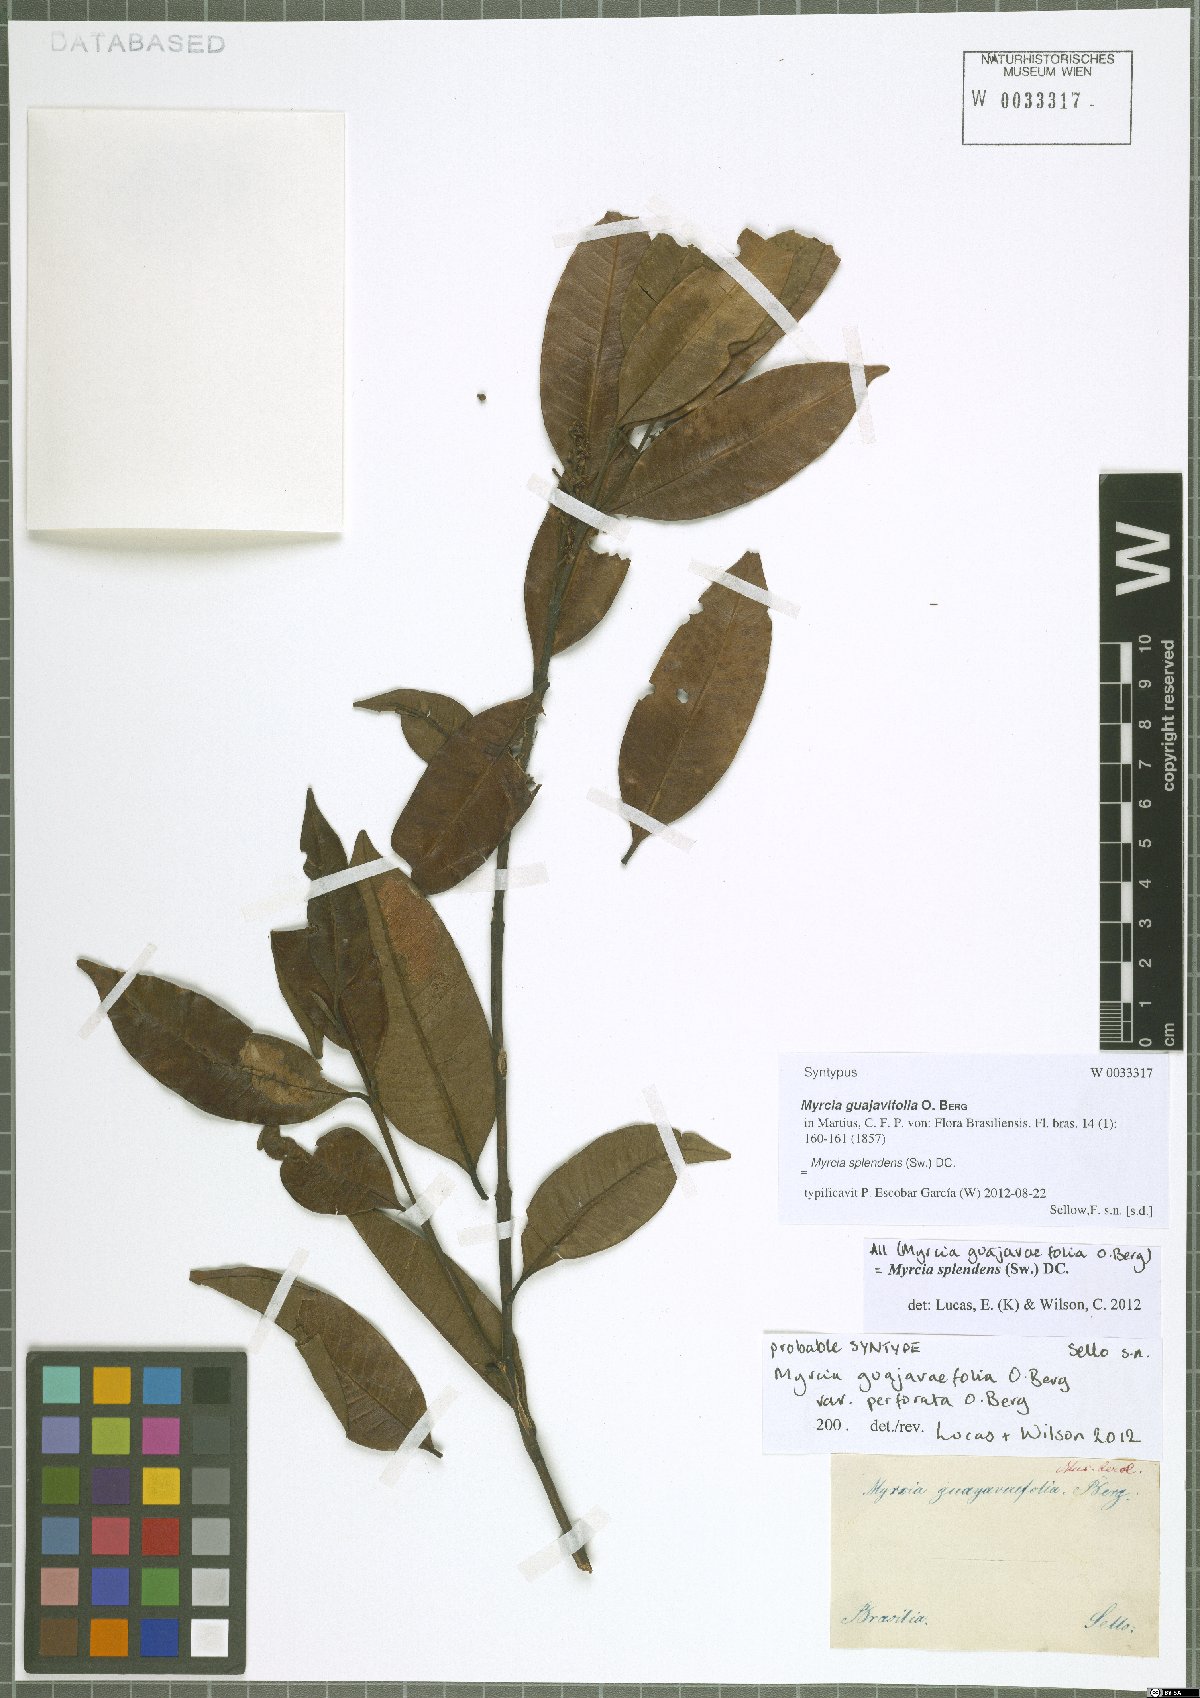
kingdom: Plantae
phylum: Tracheophyta
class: Magnoliopsida
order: Myrtales
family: Myrtaceae
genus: Myrcia
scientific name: Myrcia splendens
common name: Surinam cherry
